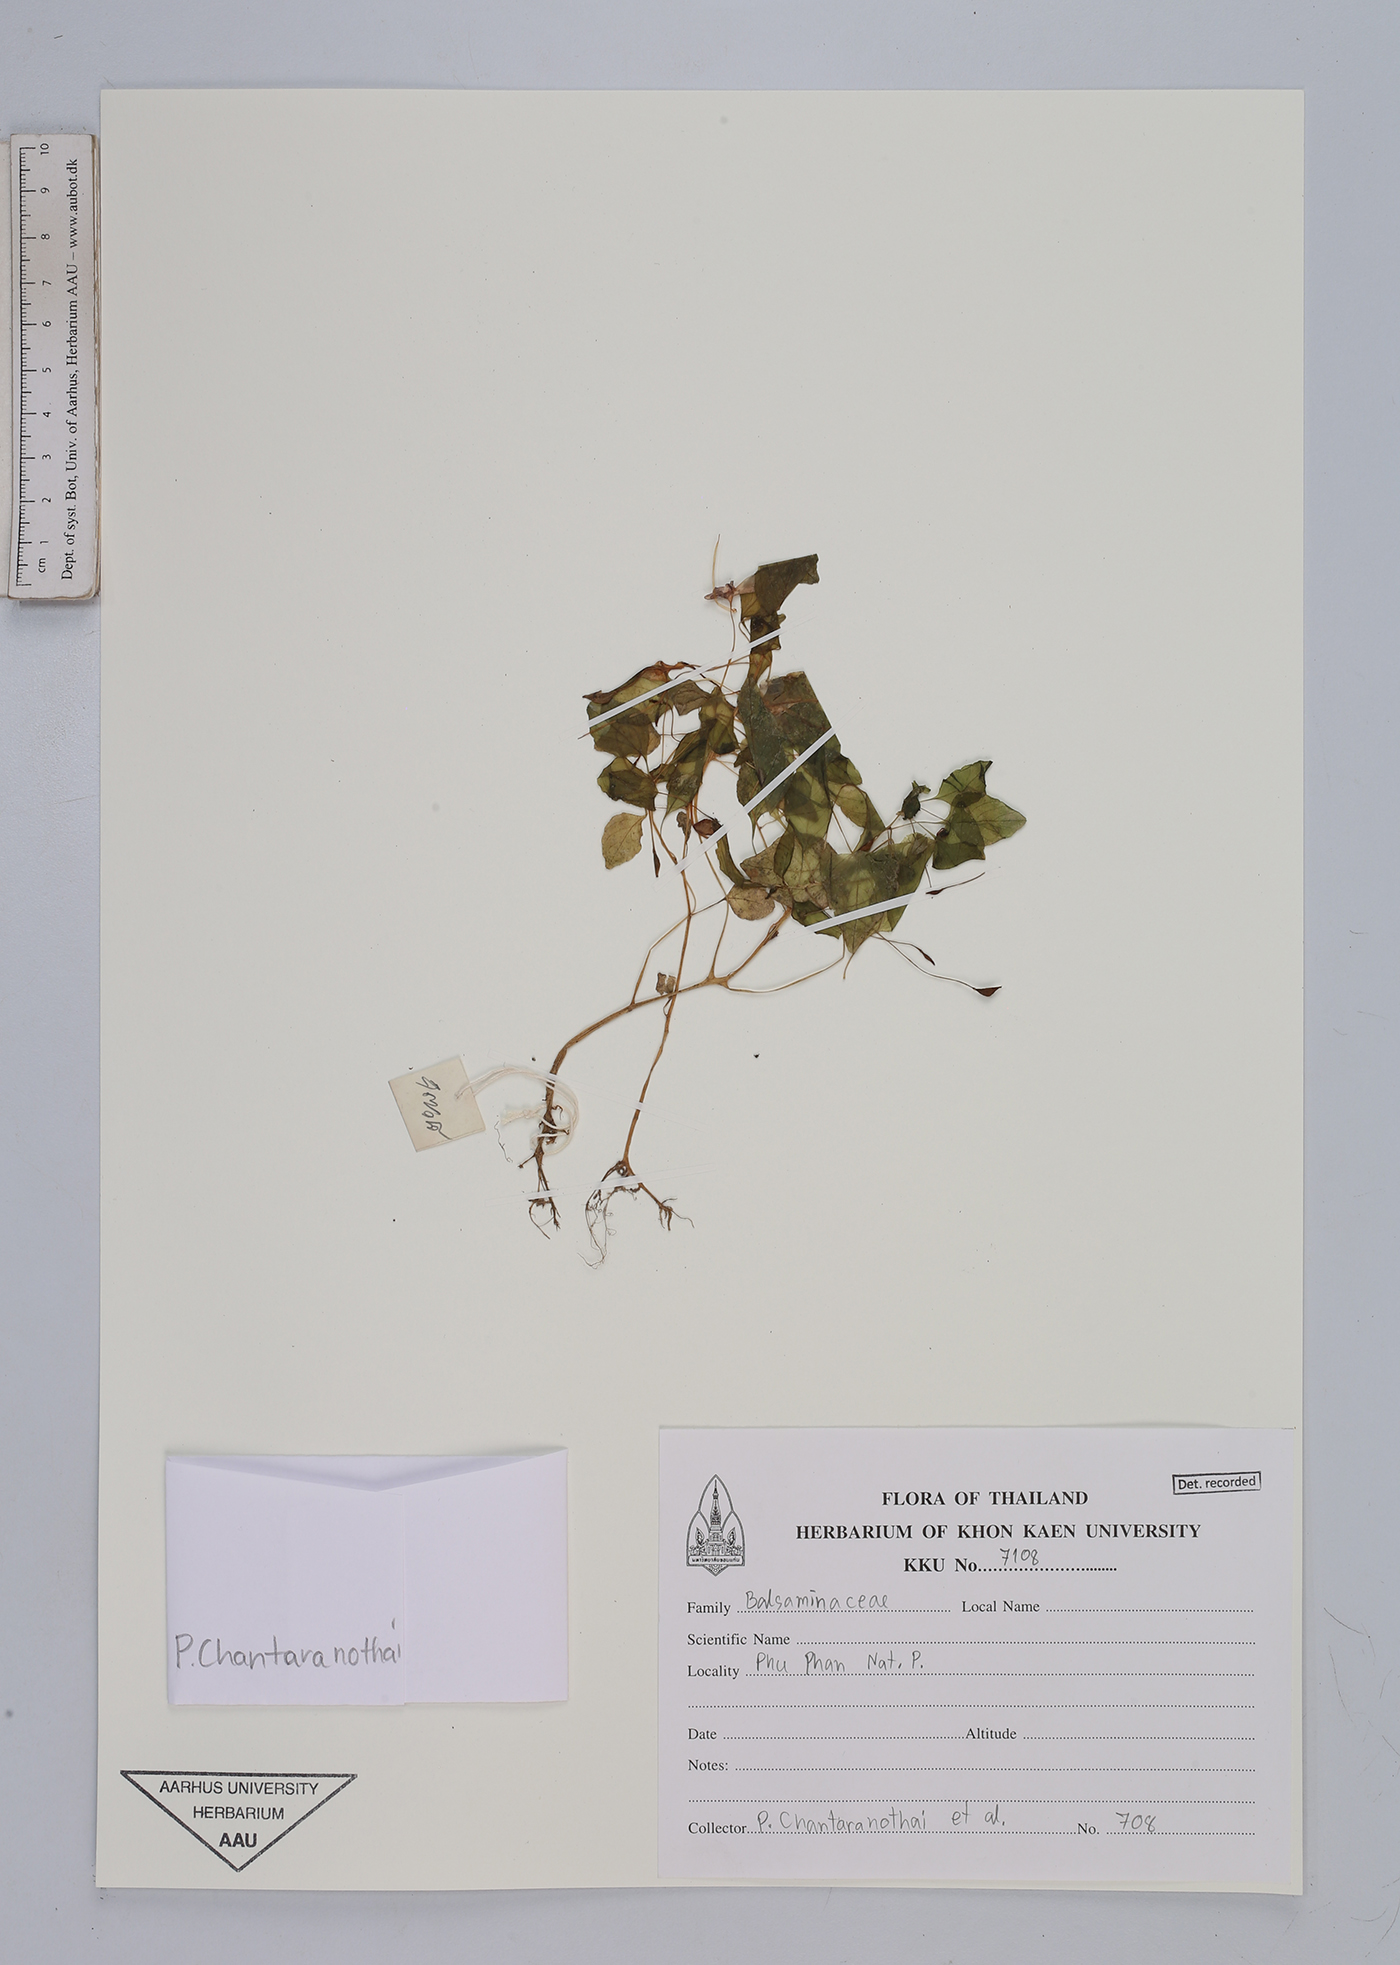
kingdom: Plantae
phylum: Tracheophyta
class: Magnoliopsida
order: Ericales
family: Balsaminaceae
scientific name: Balsaminaceae
